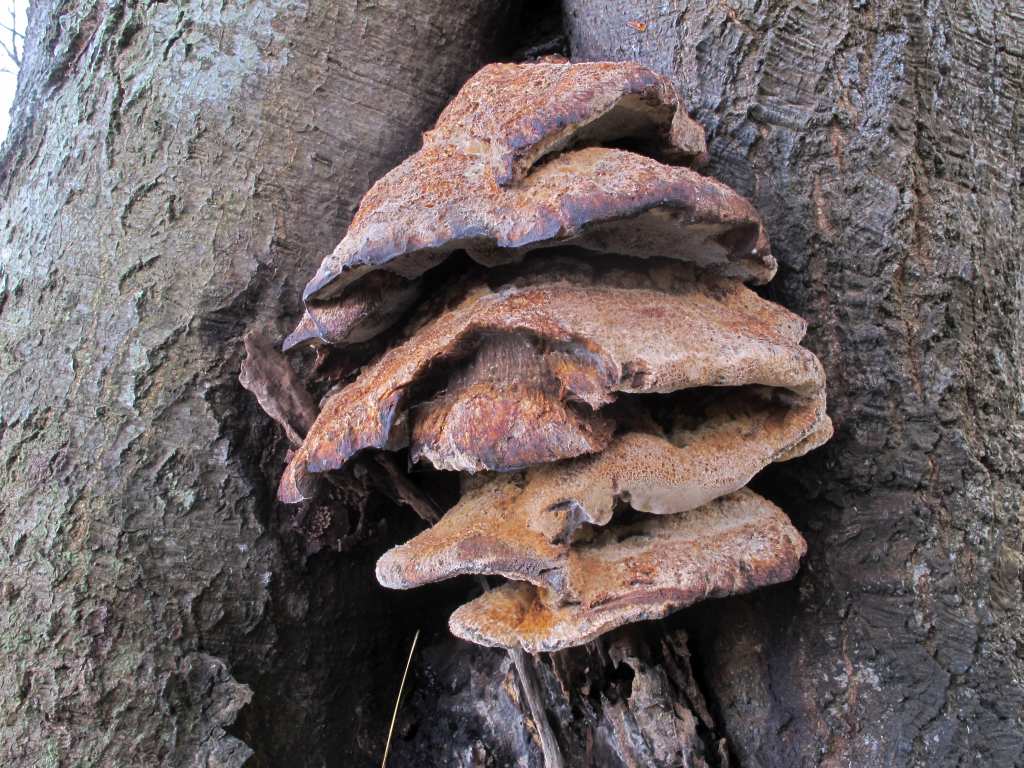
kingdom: Fungi
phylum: Basidiomycota
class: Agaricomycetes
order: Hymenochaetales
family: Hymenochaetaceae
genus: Inonotus
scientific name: Inonotus cuticularis
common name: kroghåret spejlporesvamp
